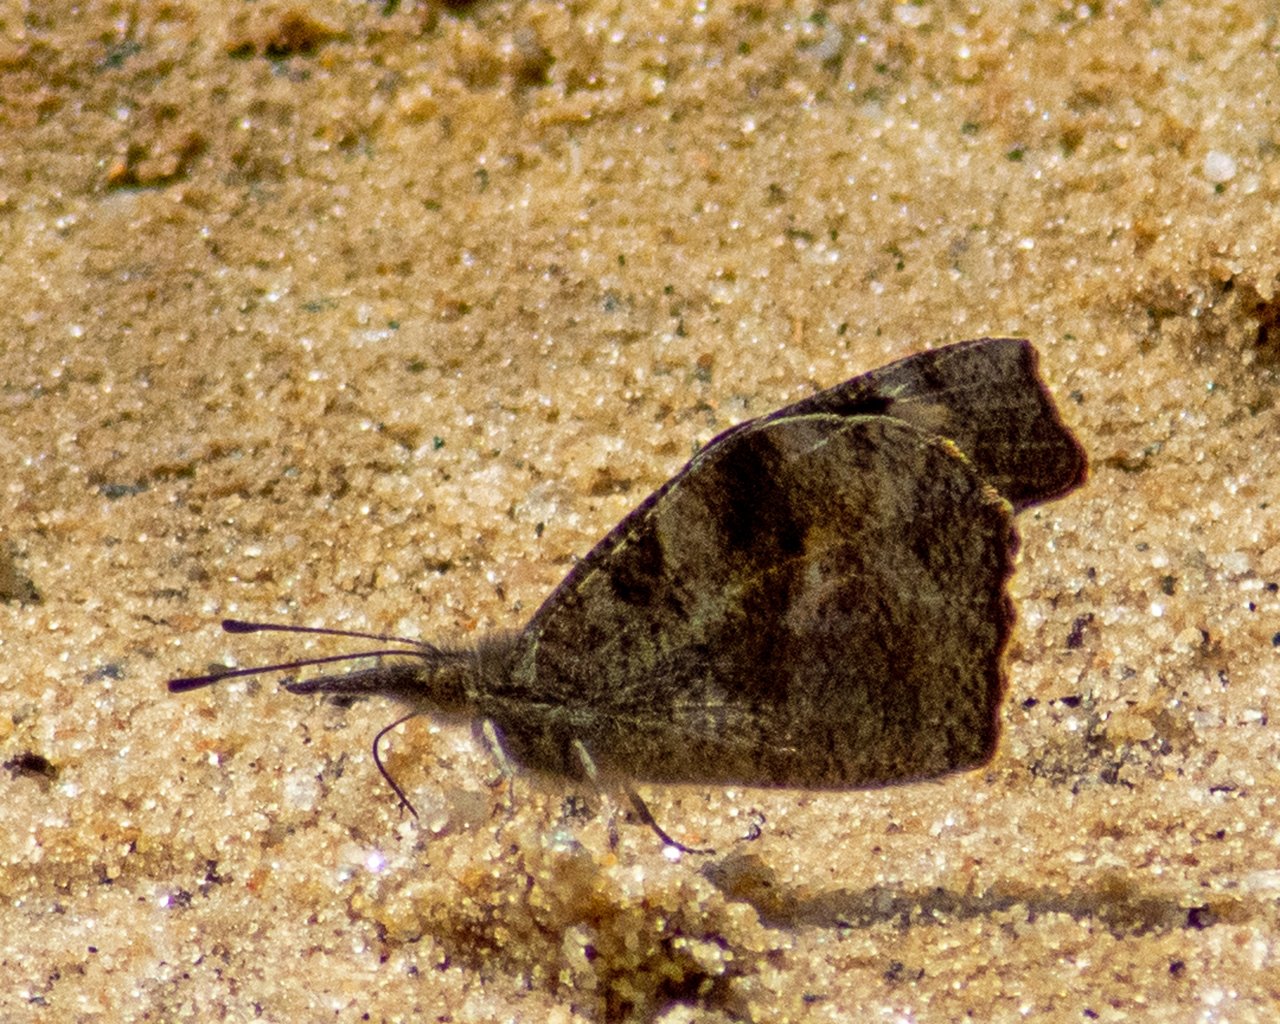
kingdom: Animalia
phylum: Arthropoda
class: Insecta
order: Lepidoptera
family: Nymphalidae
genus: Libytheana
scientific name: Libytheana carinenta
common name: American Snout
